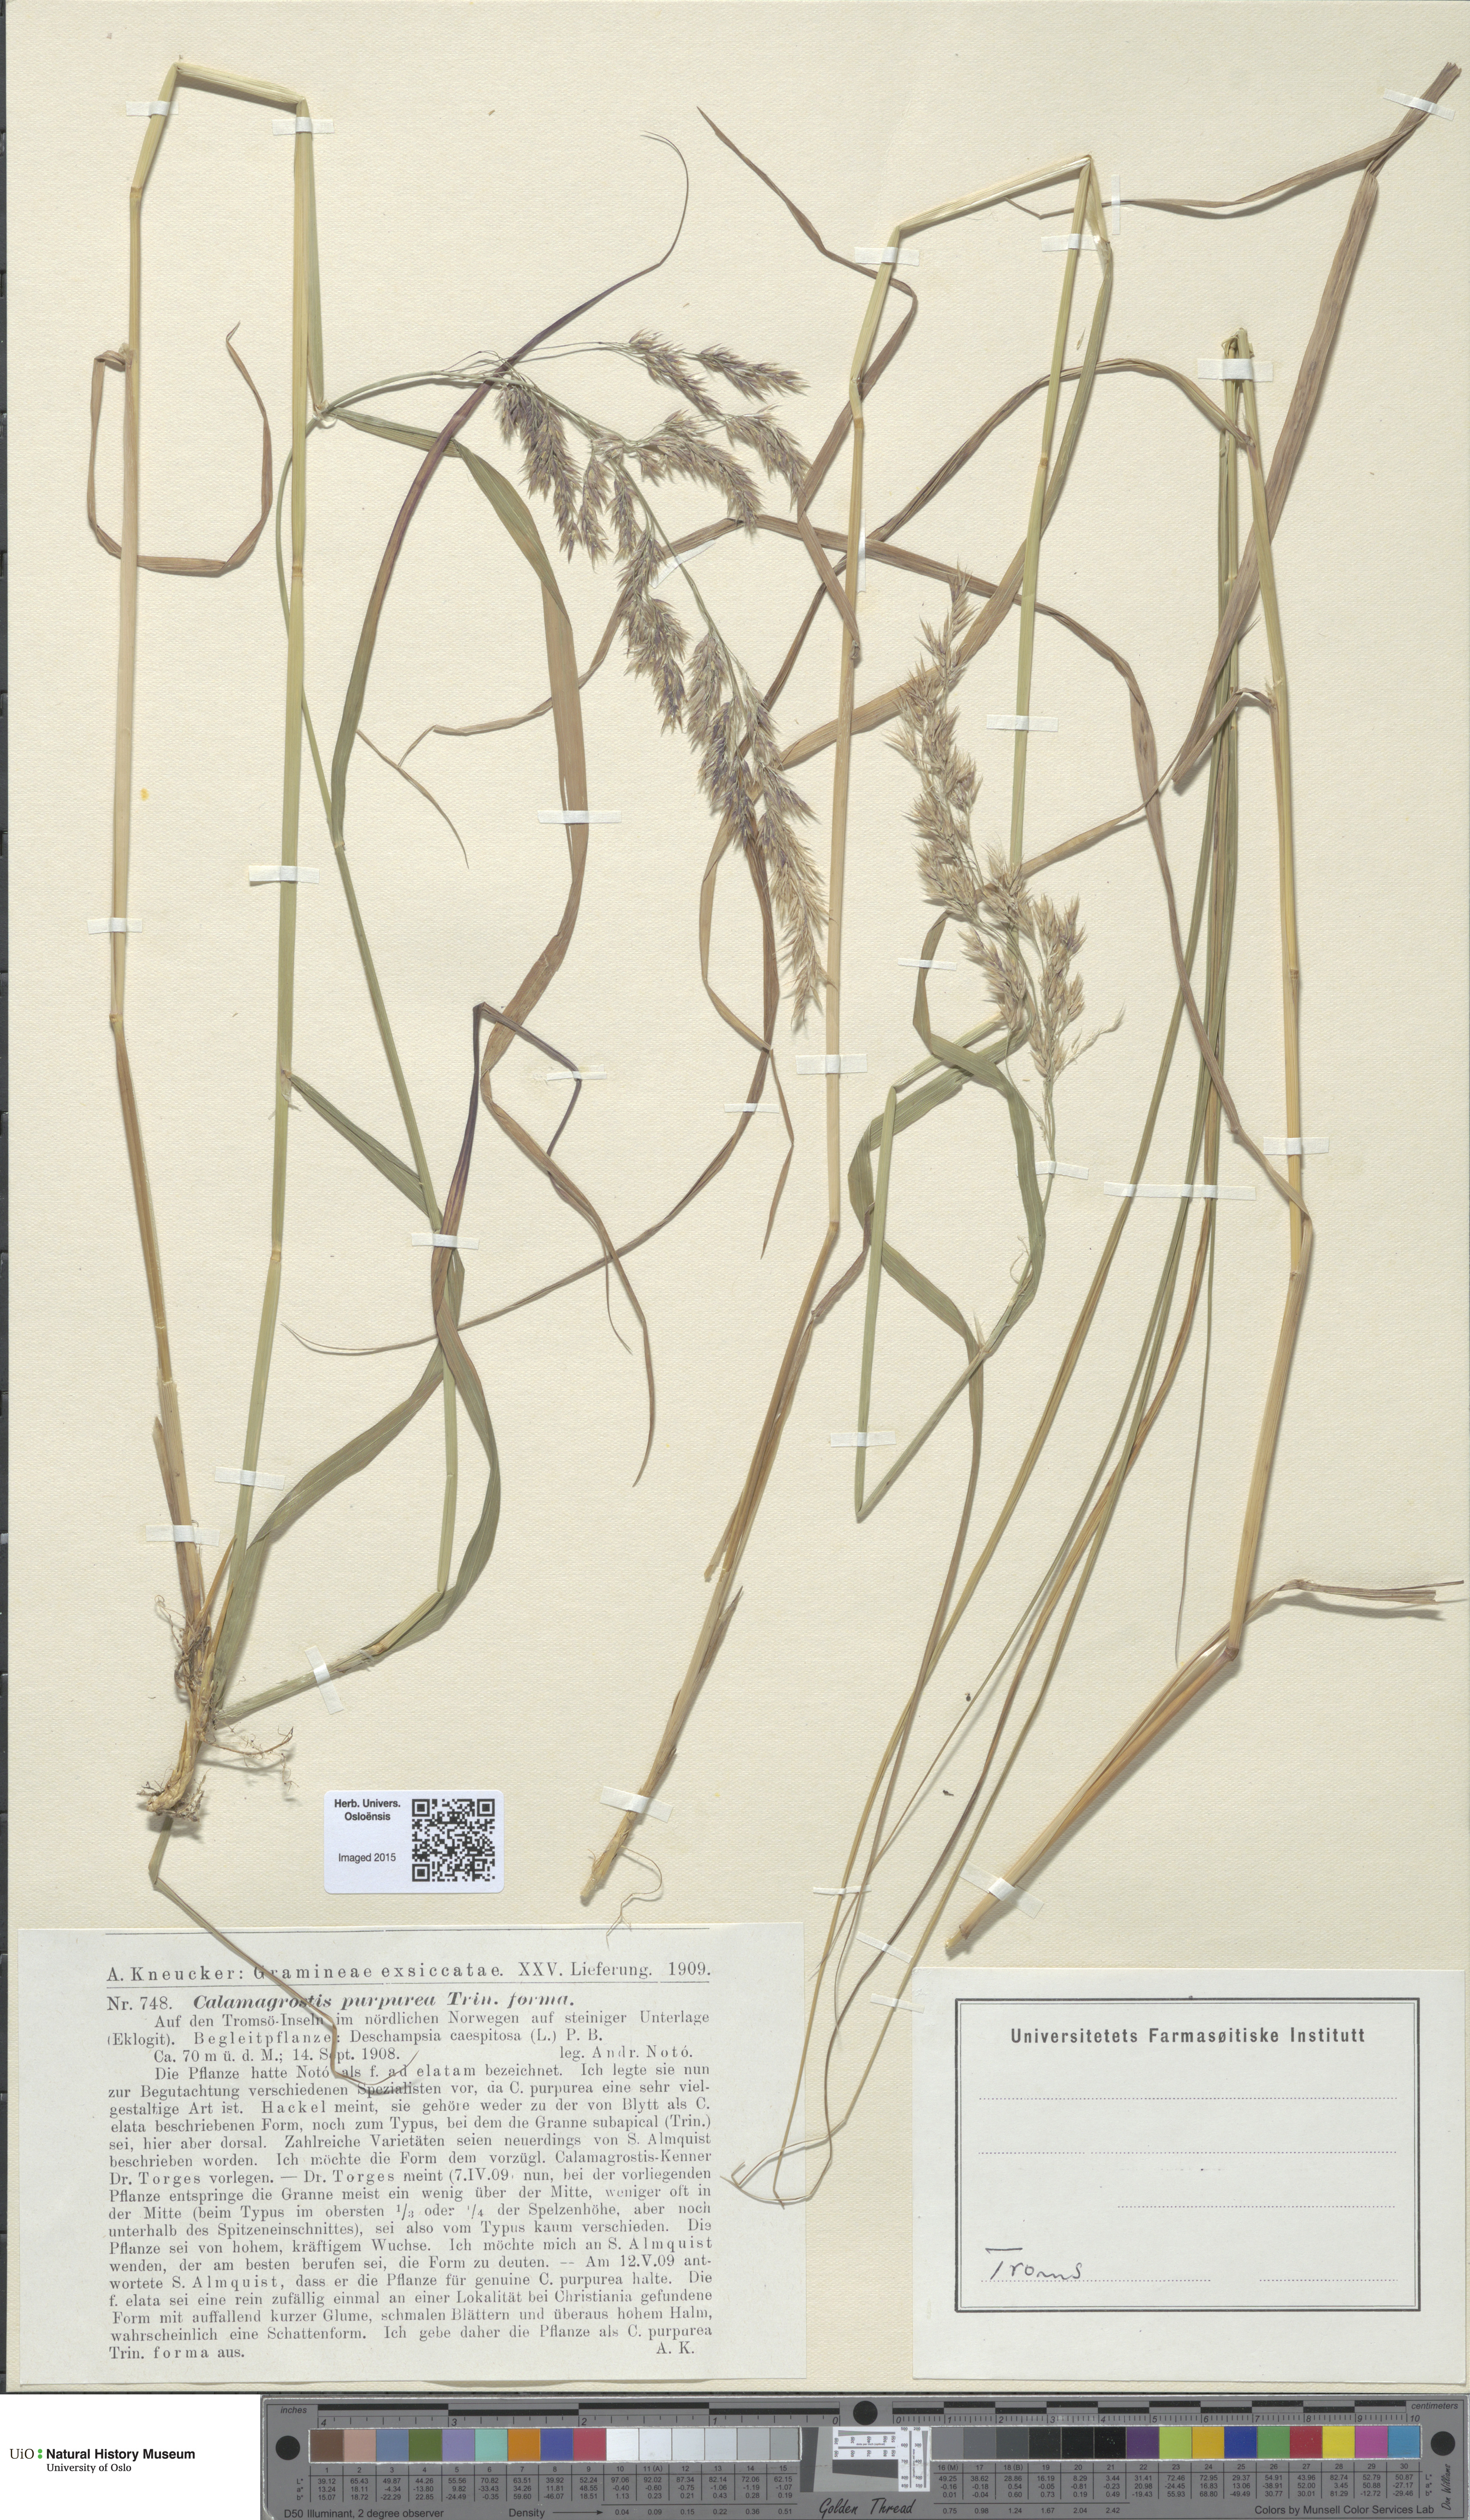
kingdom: Plantae
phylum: Tracheophyta
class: Liliopsida
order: Poales
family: Poaceae
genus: Calamagrostis
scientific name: Calamagrostis purpurea
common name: Scandinavian small-reed
